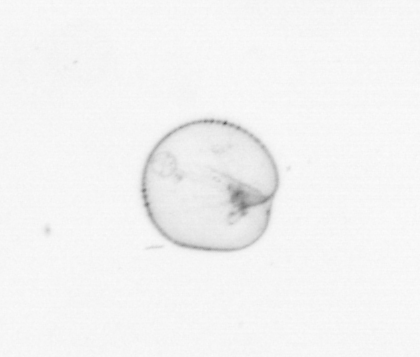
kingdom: Chromista
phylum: Myzozoa
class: Dinophyceae
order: Noctilucales
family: Noctilucaceae
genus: Noctiluca
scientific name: Noctiluca scintillans
